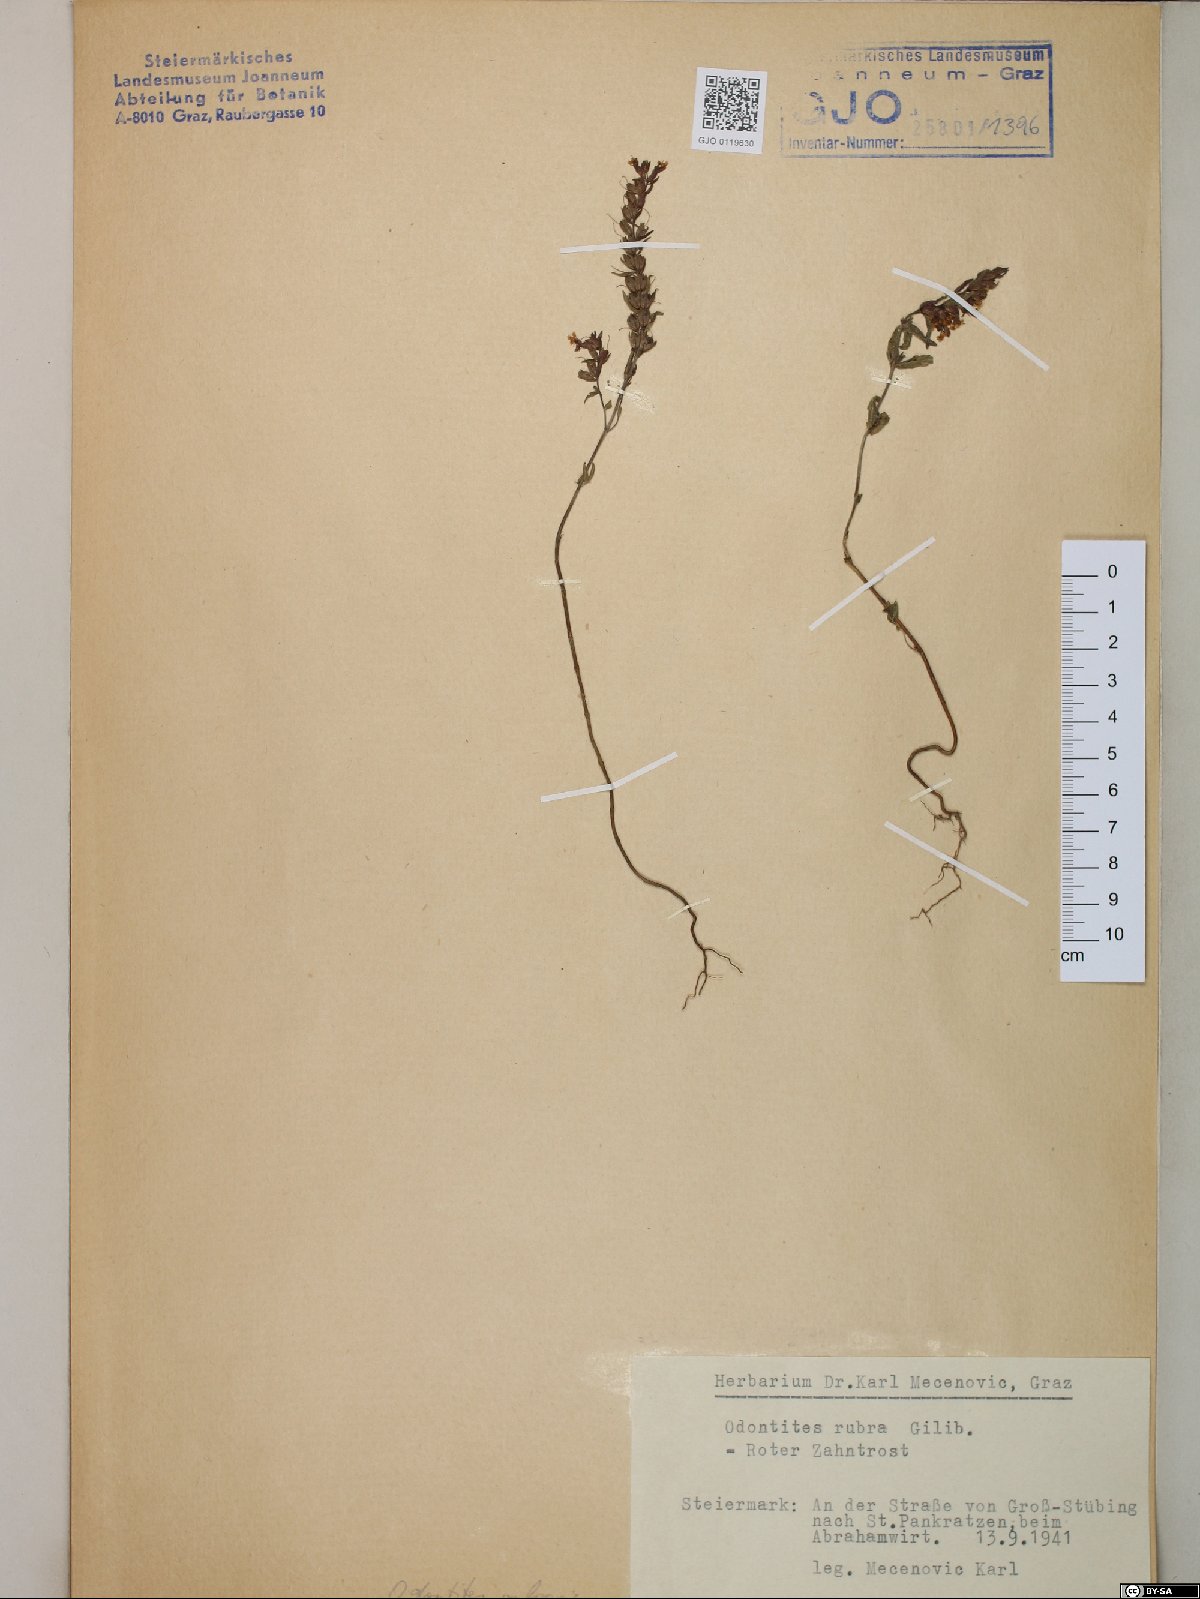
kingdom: Plantae
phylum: Tracheophyta
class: Magnoliopsida
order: Lamiales
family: Orobanchaceae
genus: Odontites
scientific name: Odontites vulgaris
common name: Broomrape
